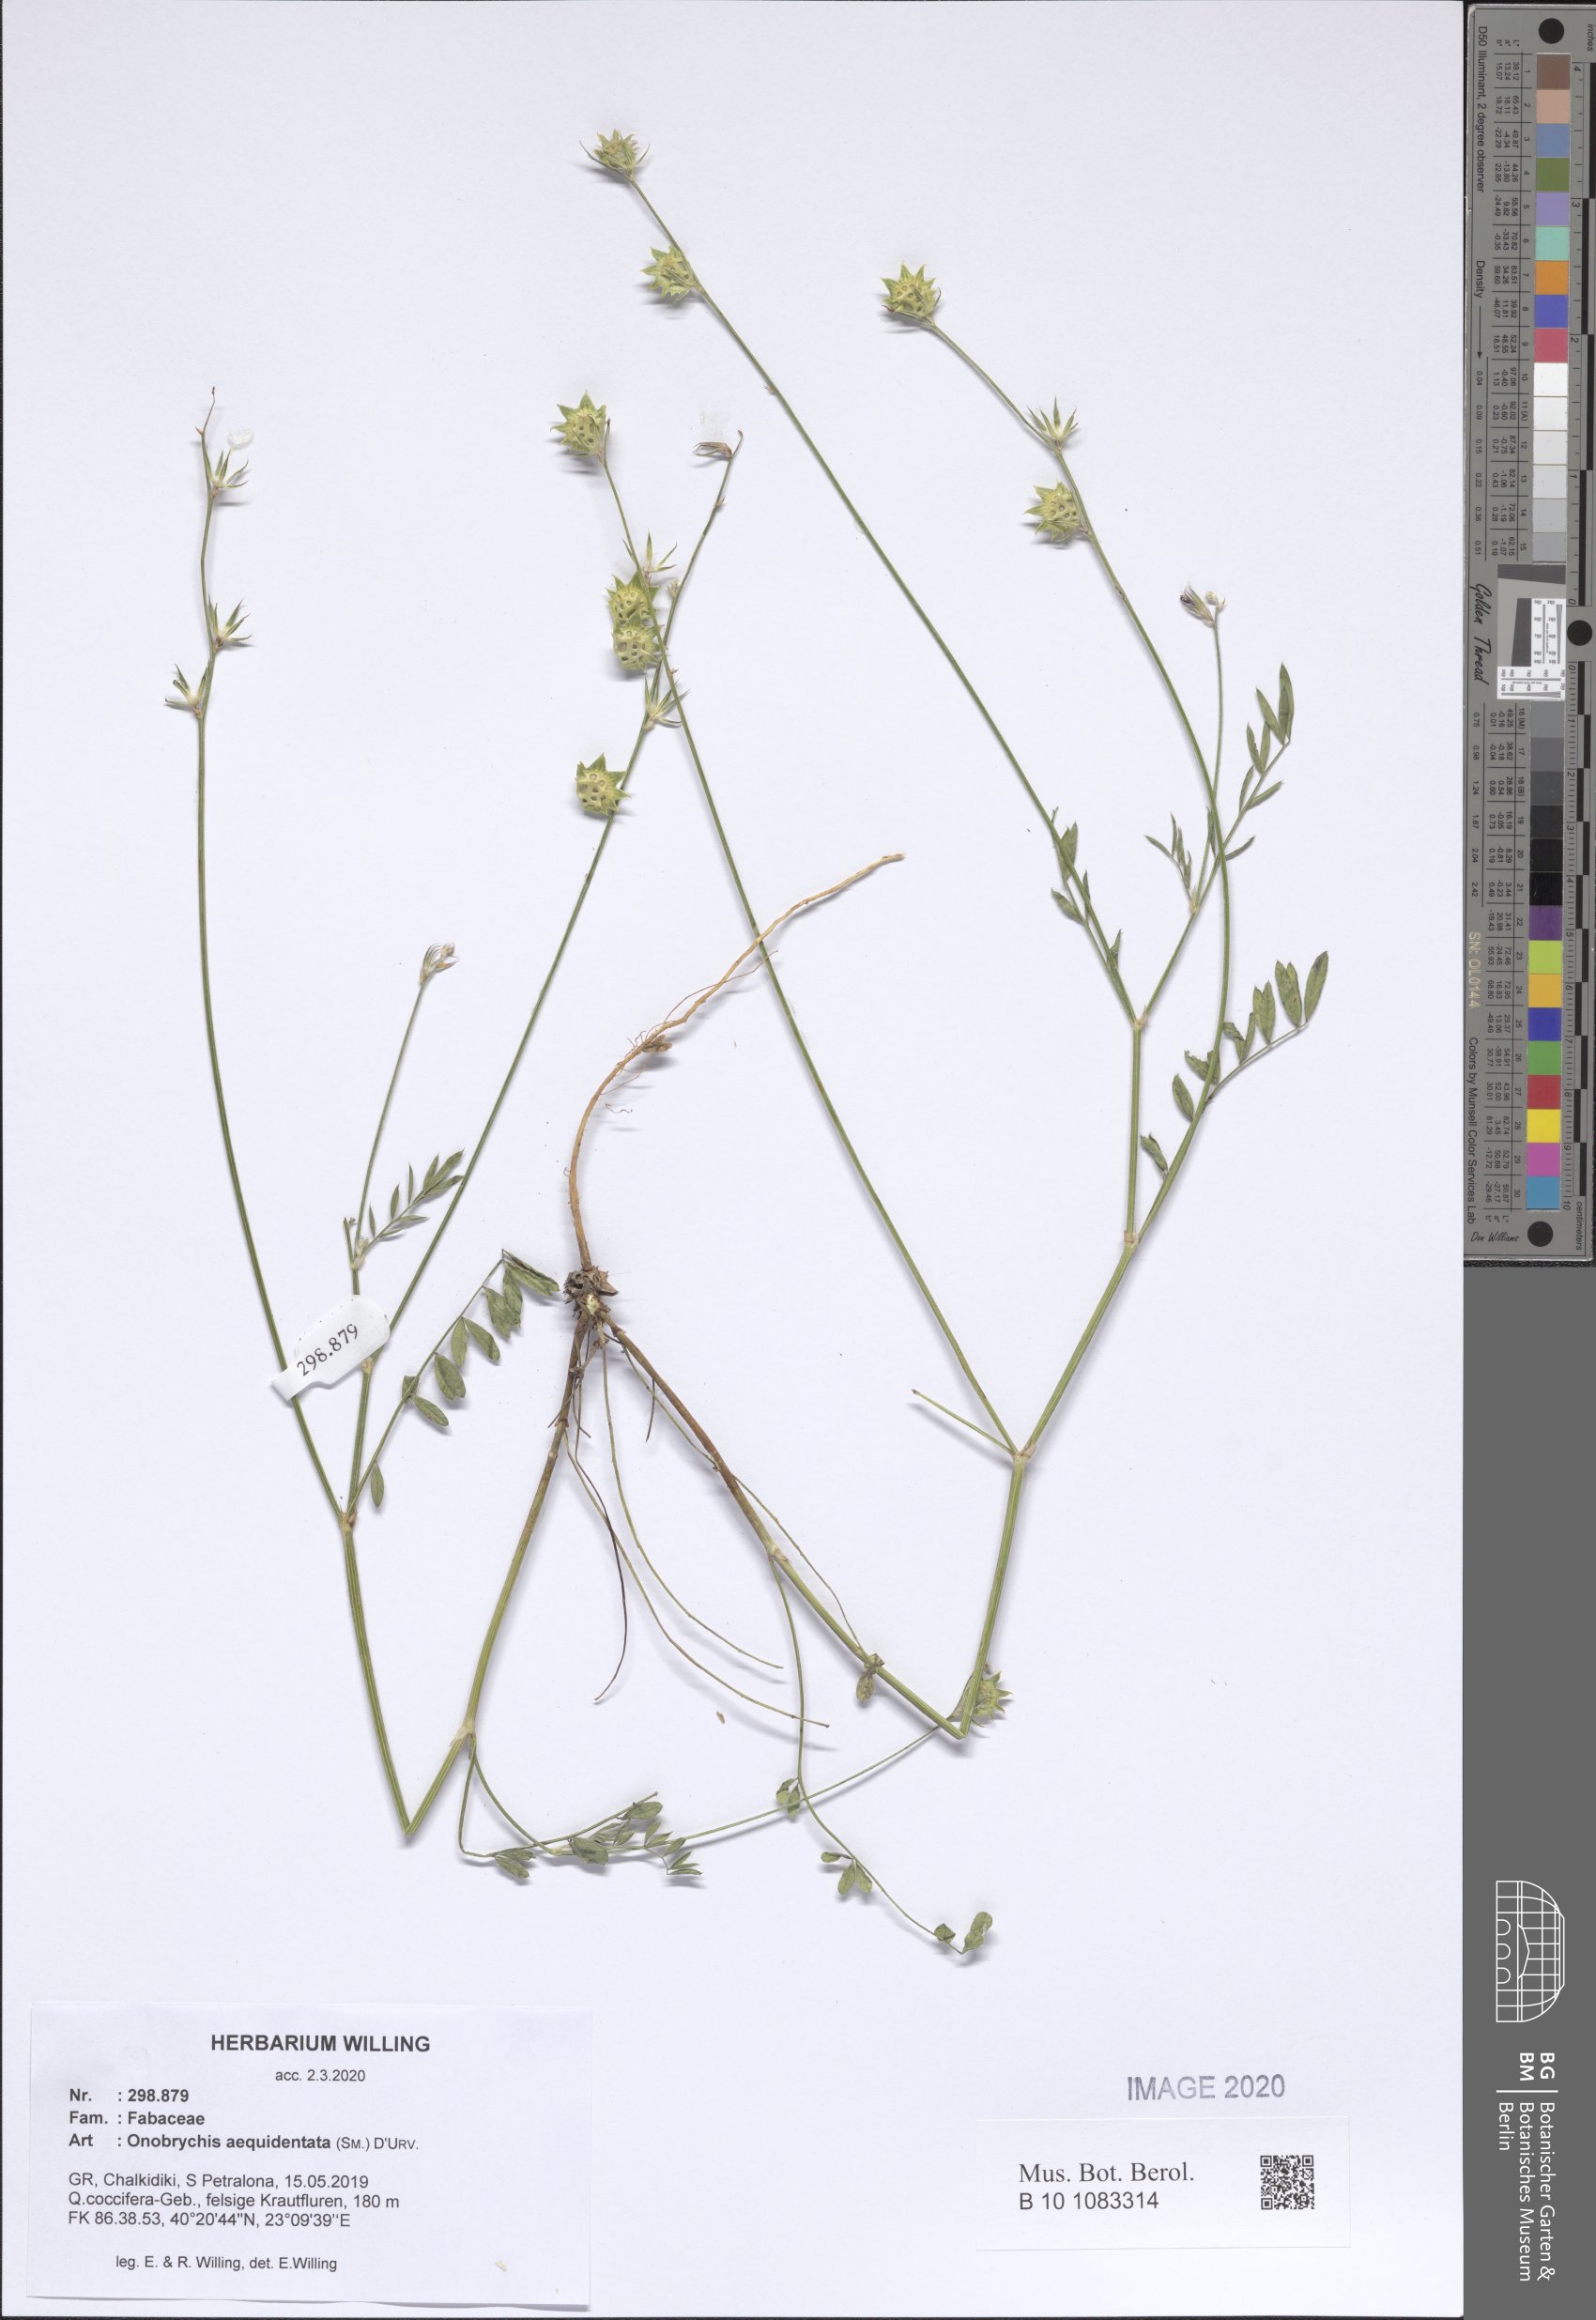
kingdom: Plantae
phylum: Tracheophyta
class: Magnoliopsida
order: Fabales
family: Fabaceae
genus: Onobrychis
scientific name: Onobrychis aequidentata
